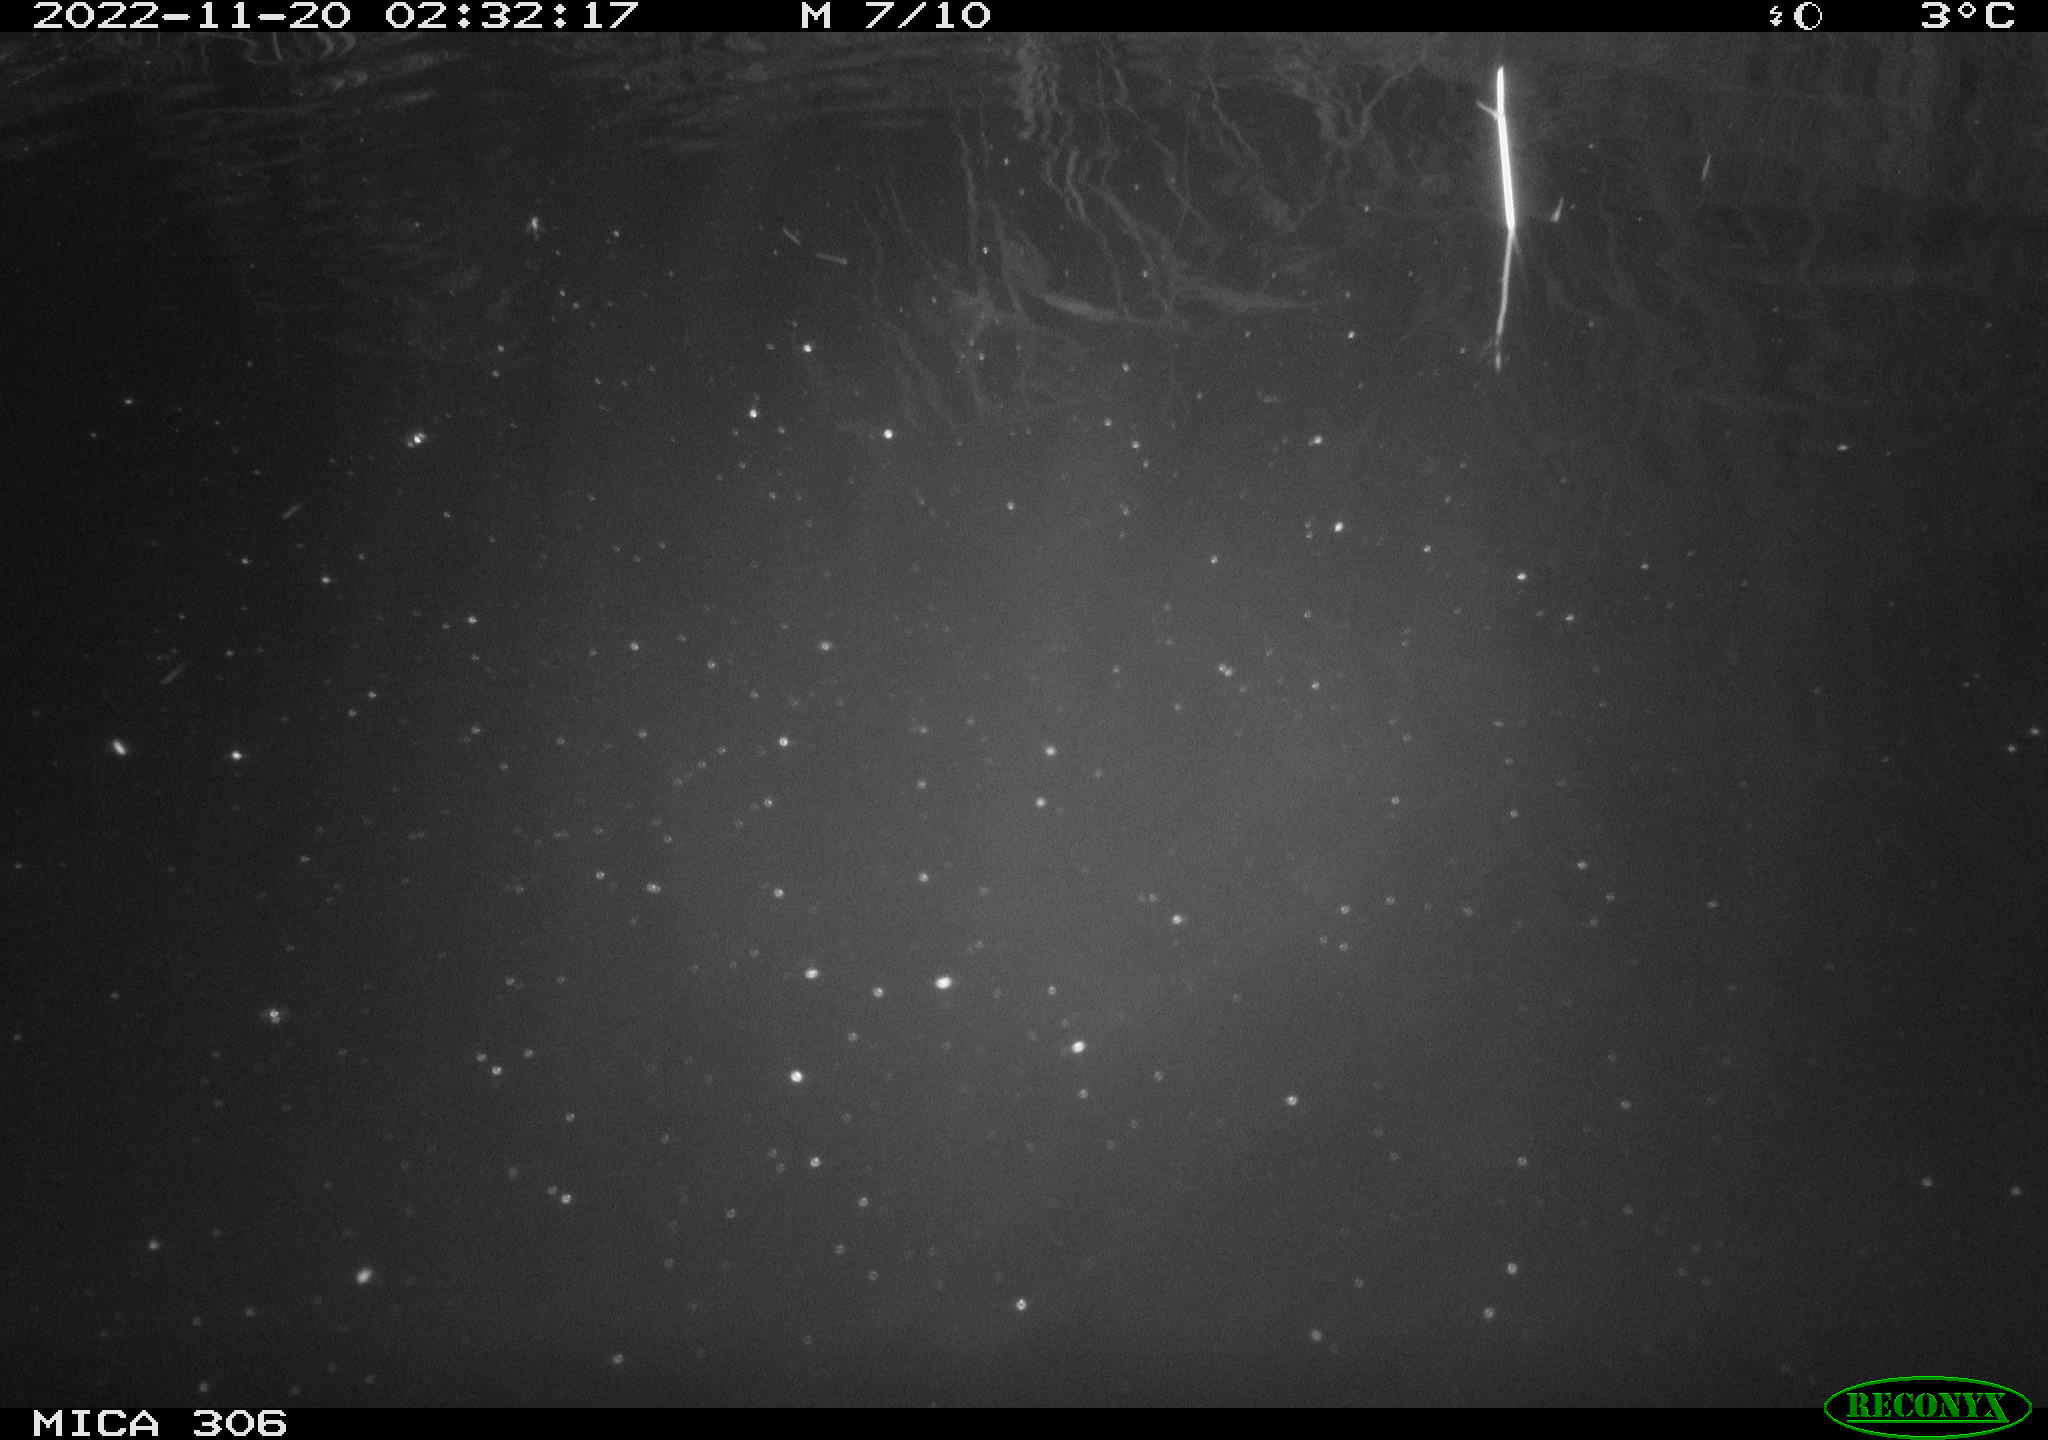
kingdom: Animalia
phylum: Chordata
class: Mammalia
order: Rodentia
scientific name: Rodentia
